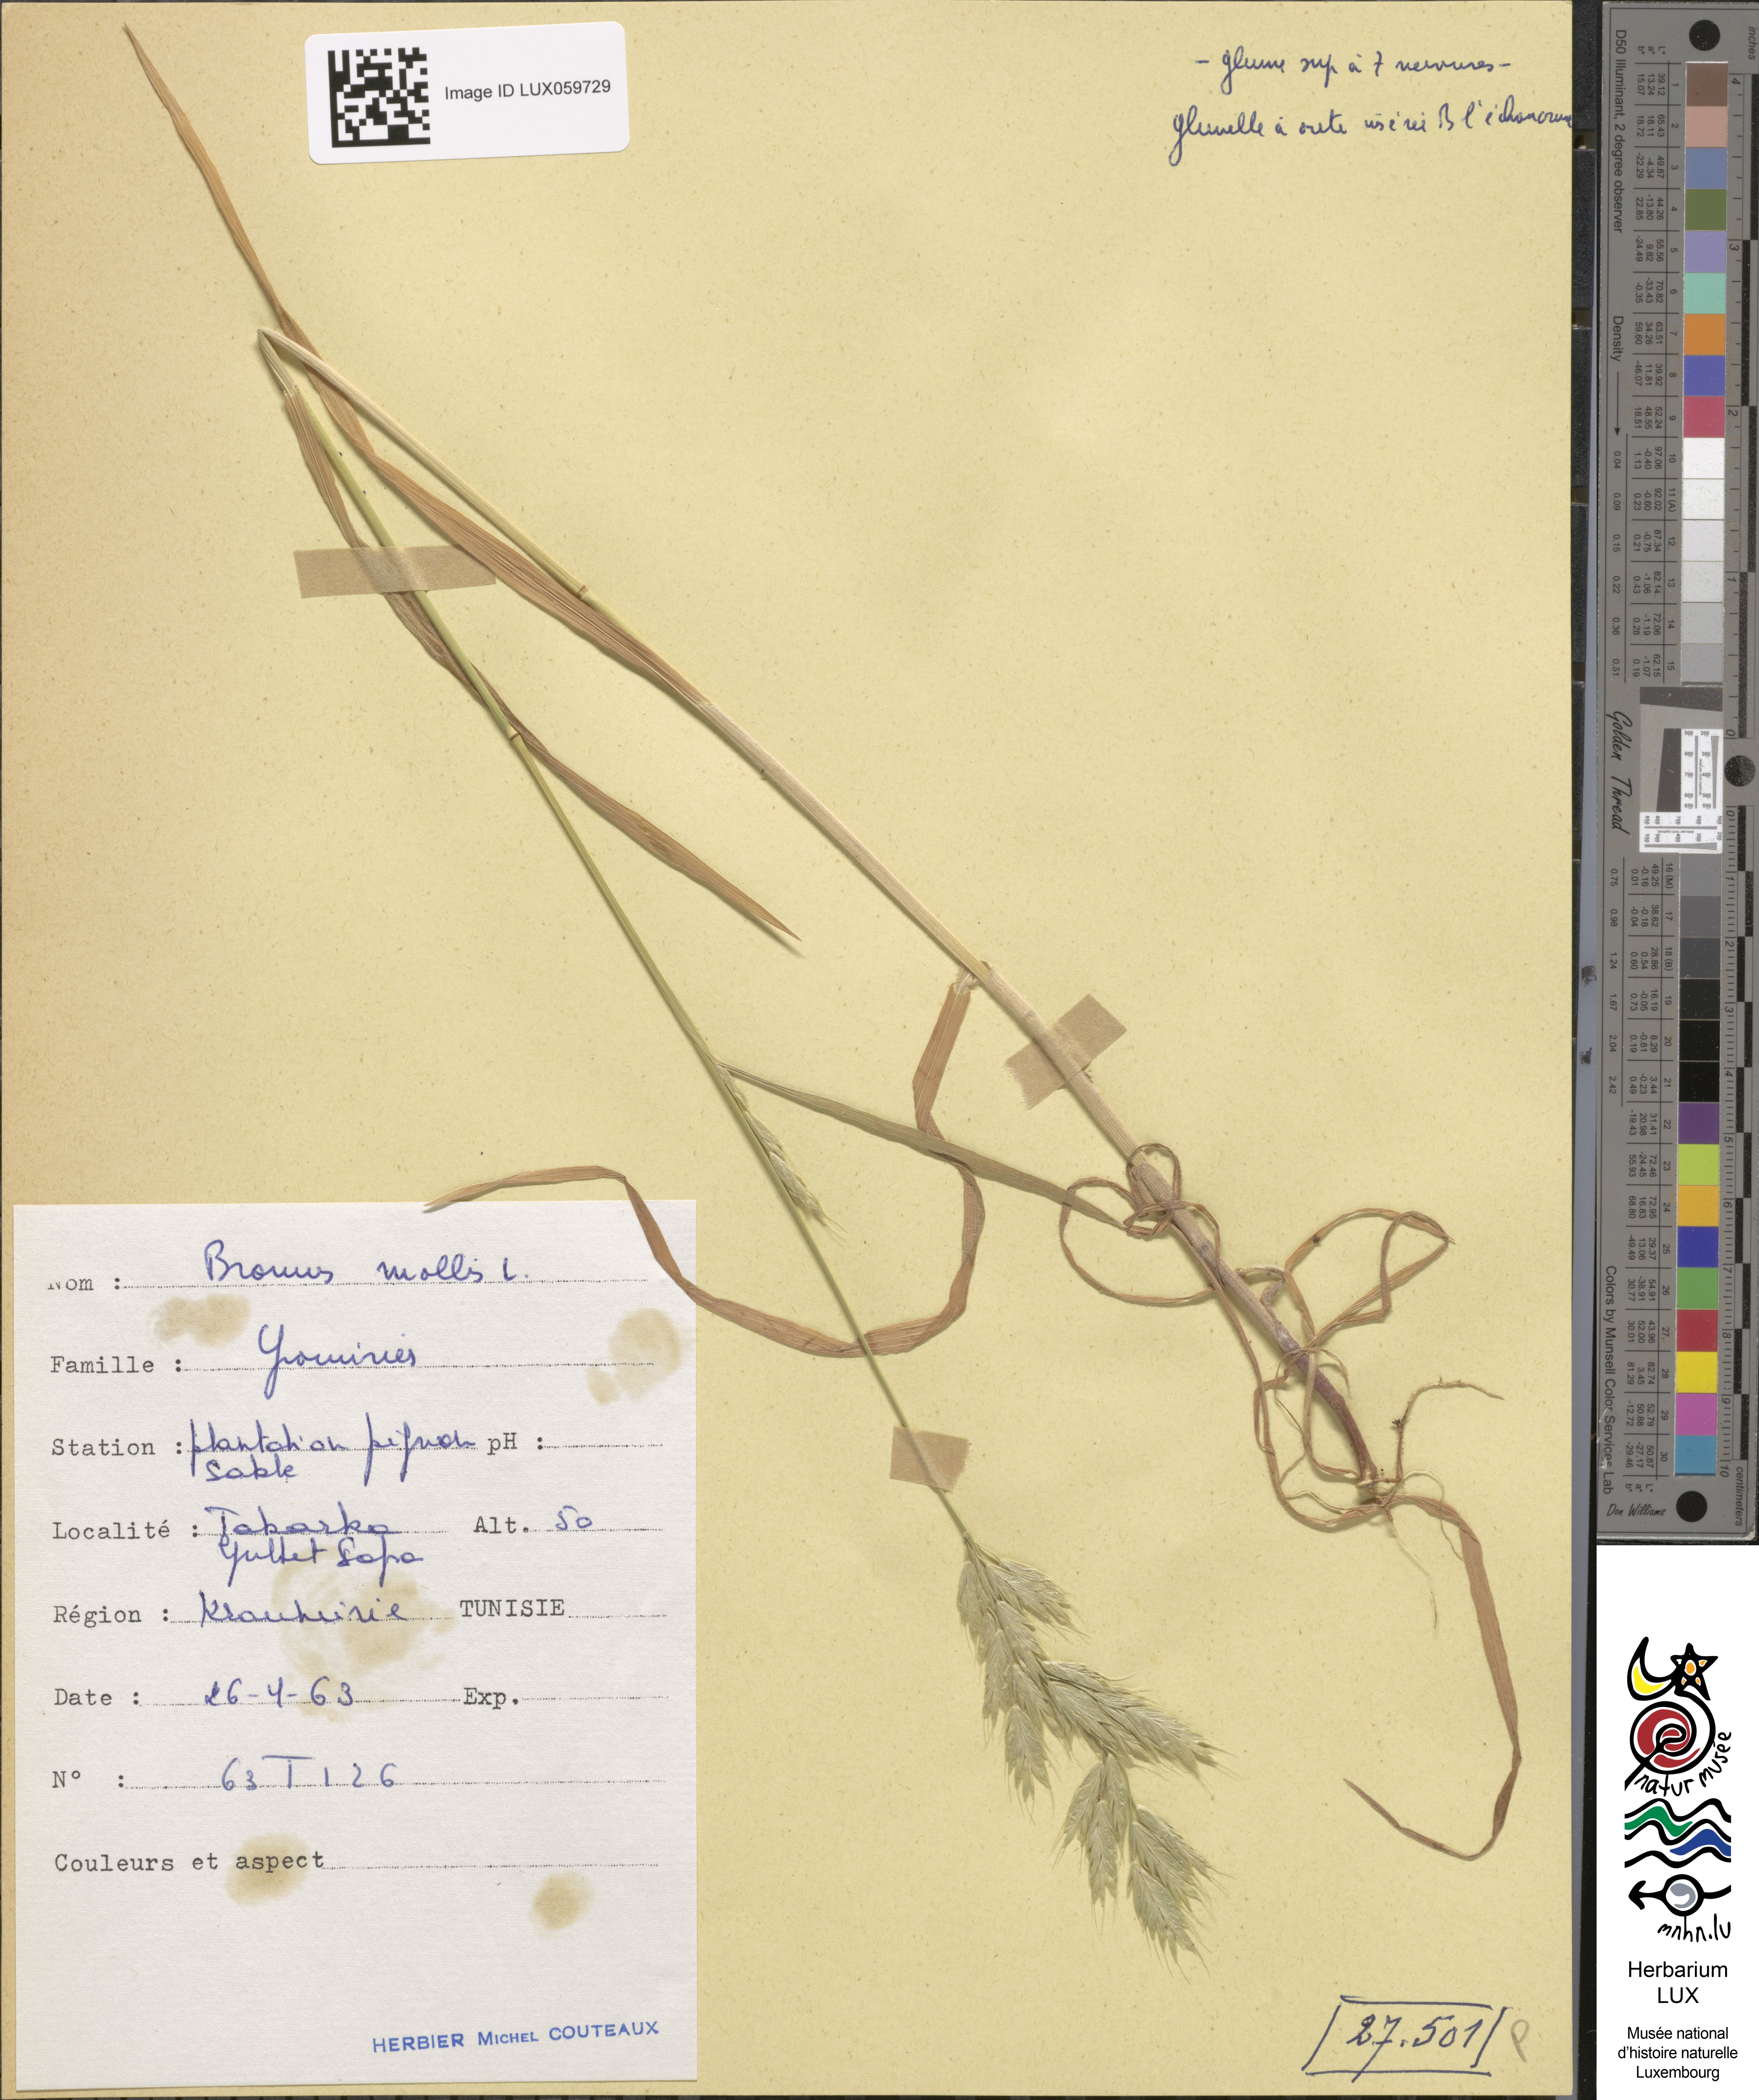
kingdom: Plantae
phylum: Tracheophyta
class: Liliopsida
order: Poales
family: Poaceae
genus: Bromus
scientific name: Bromus hordeaceus
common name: Soft brome
